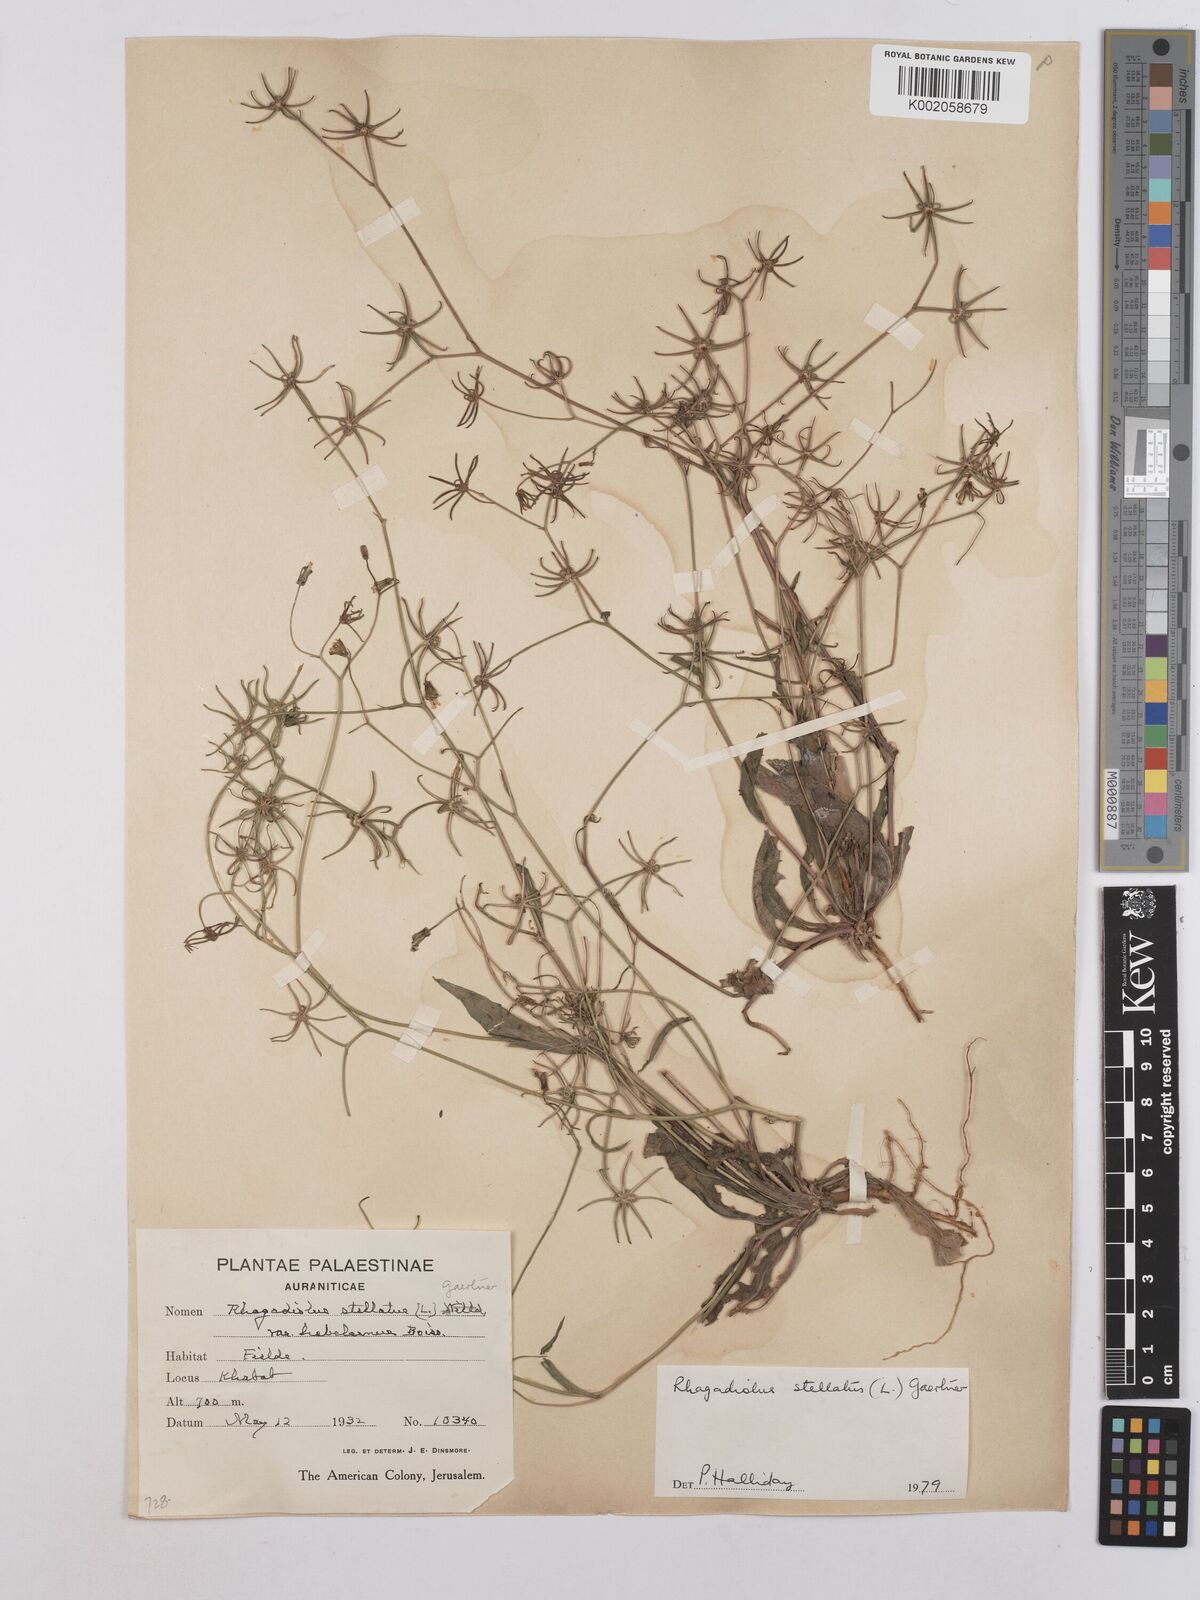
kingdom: Plantae
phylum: Tracheophyta
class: Magnoliopsida
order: Asterales
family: Asteraceae
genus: Rhagadiolus
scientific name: Rhagadiolus stellatus
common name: Star hawkbit
